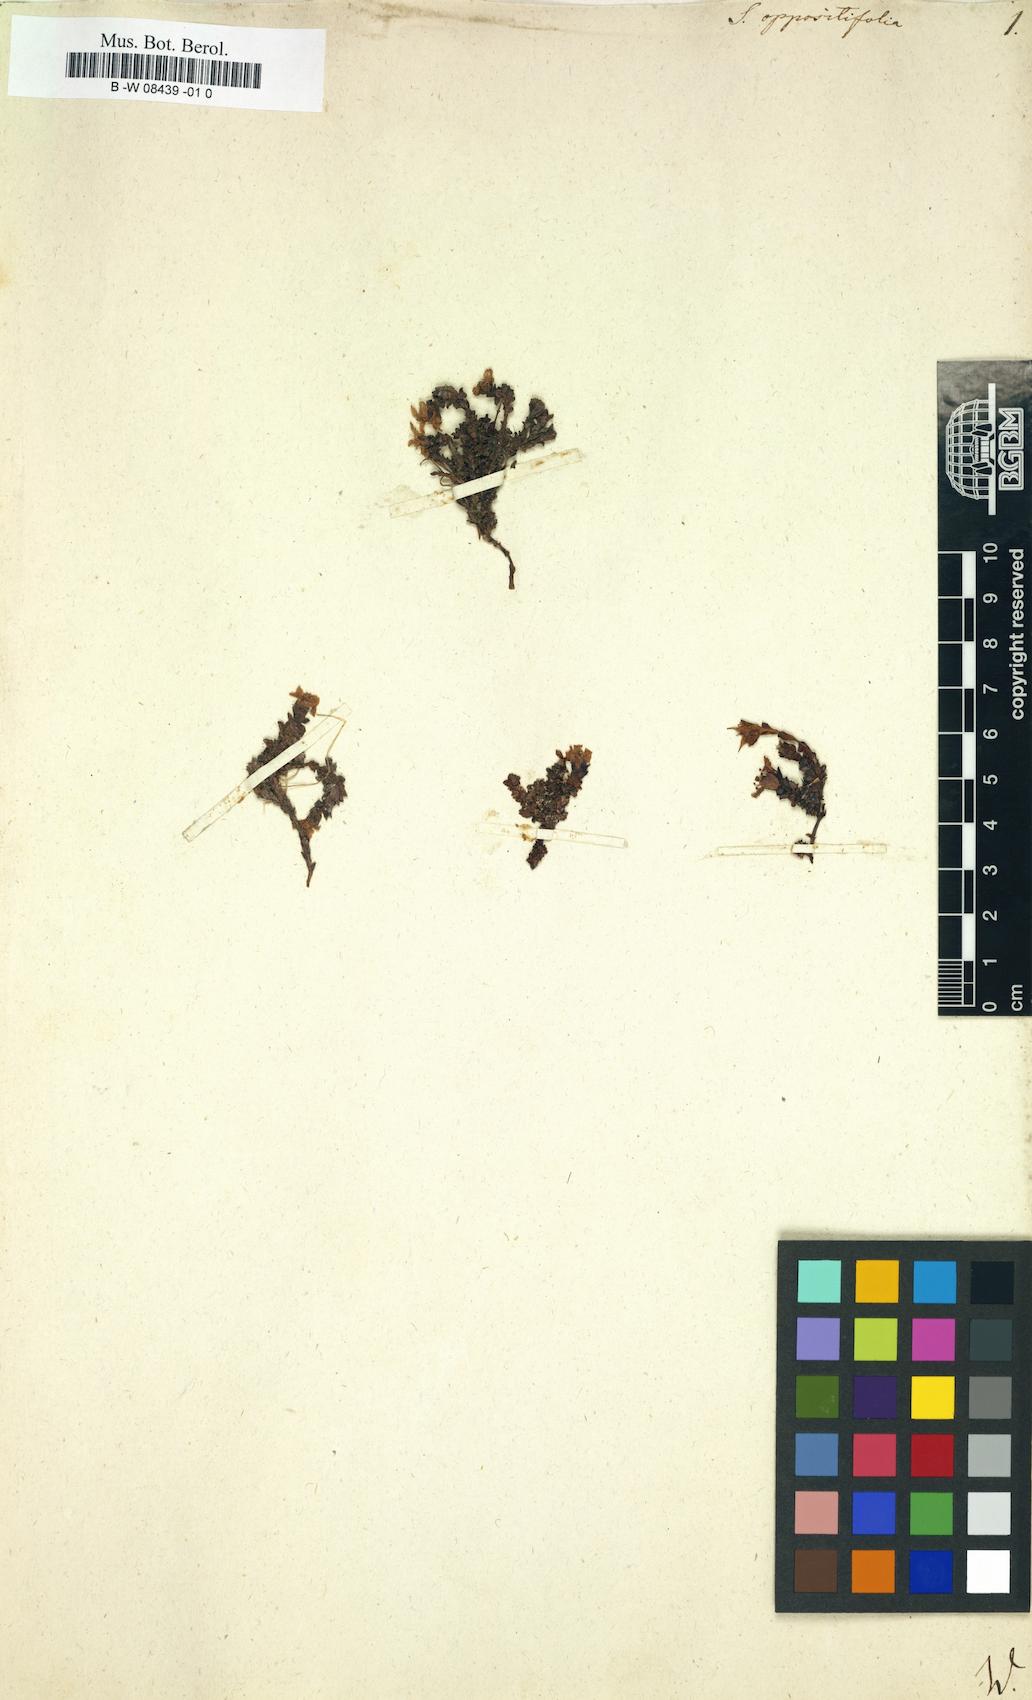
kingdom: Plantae
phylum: Tracheophyta
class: Magnoliopsida
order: Saxifragales
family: Saxifragaceae
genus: Saxifraga
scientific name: Saxifraga oppositifolia
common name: Purple saxifrage
